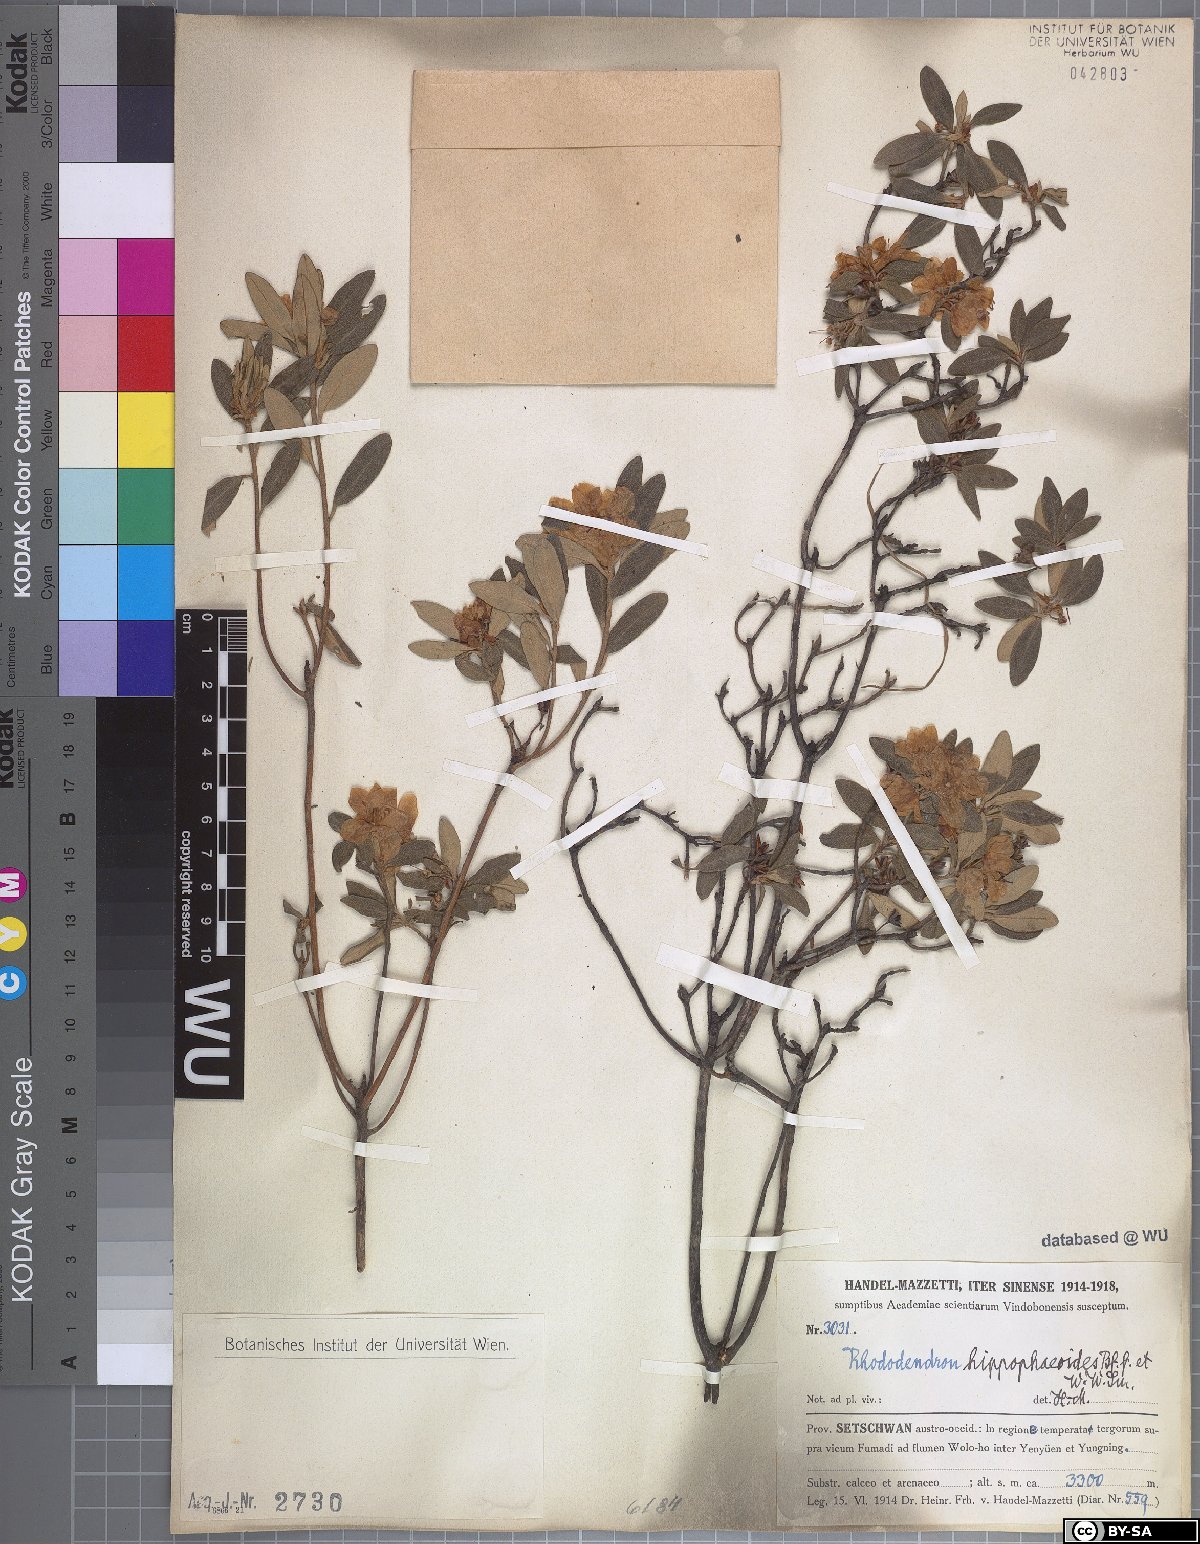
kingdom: Plantae
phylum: Tracheophyta
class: Magnoliopsida
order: Ericales
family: Ericaceae
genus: Rhododendron
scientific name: Rhododendron hippophaeoides
